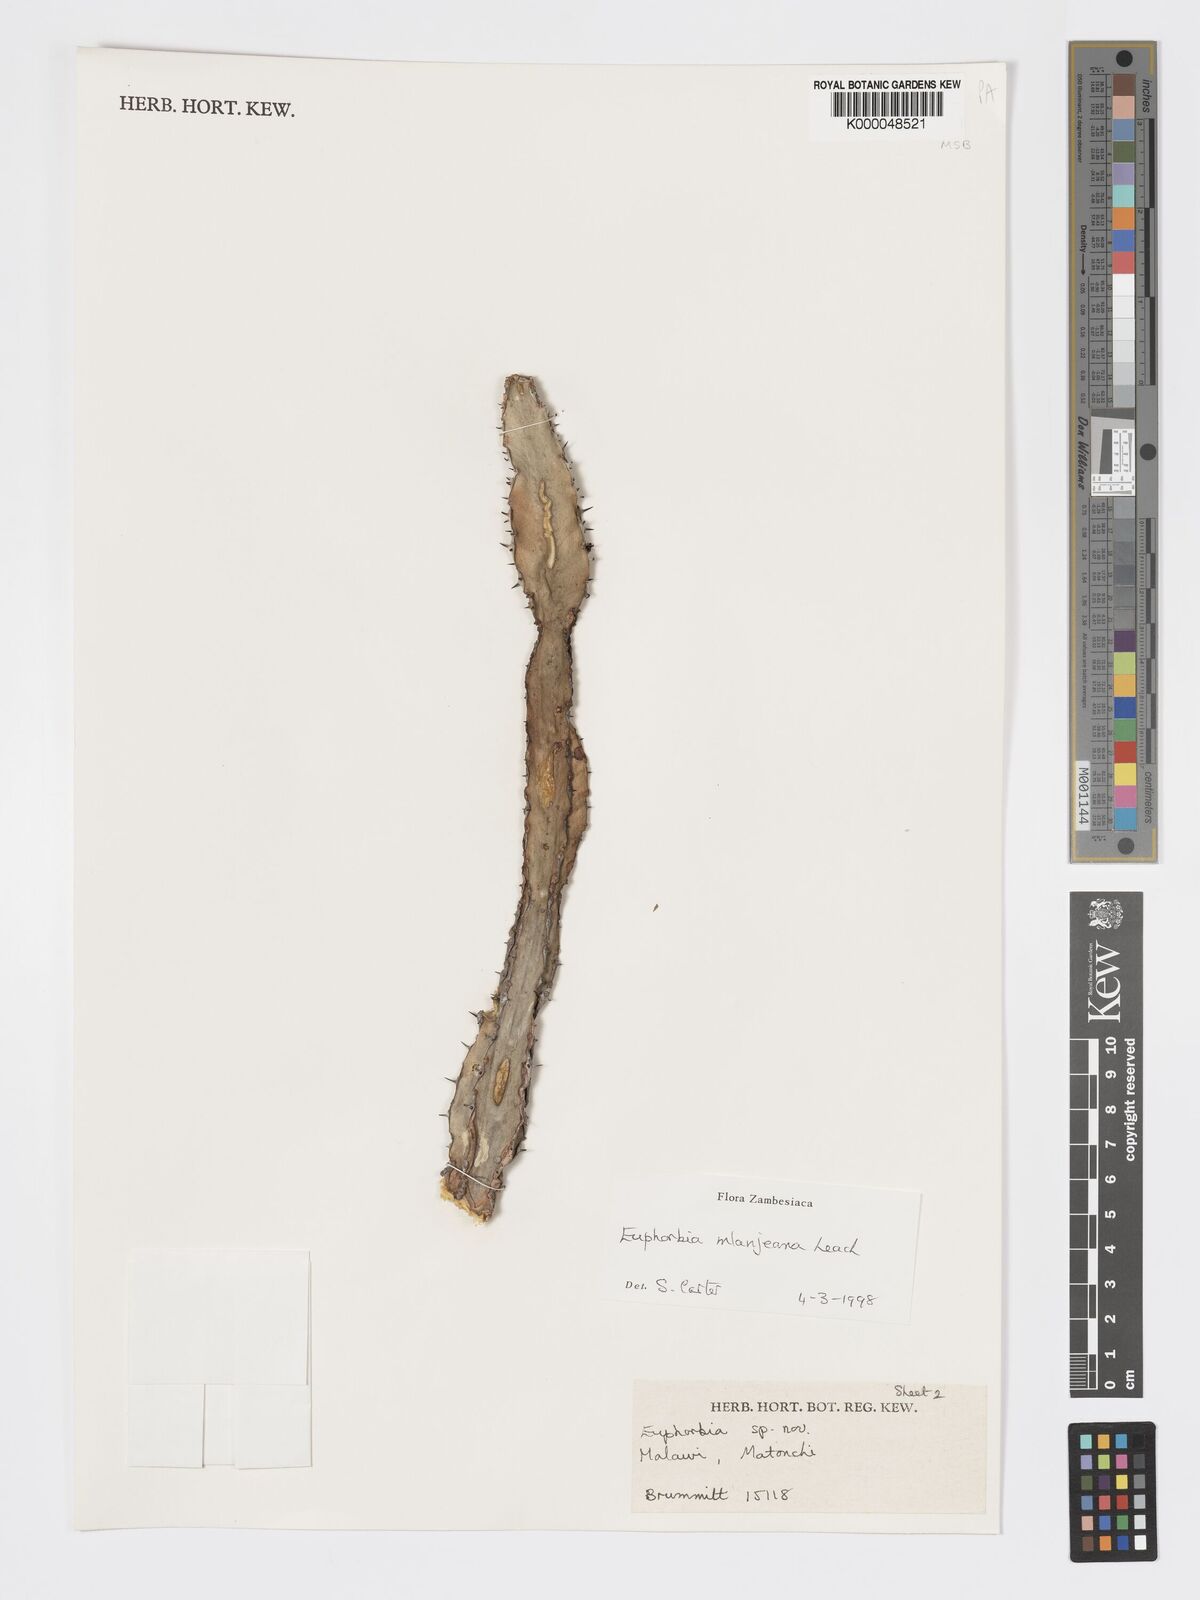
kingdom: Plantae
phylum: Tracheophyta
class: Magnoliopsida
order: Malpighiales
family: Euphorbiaceae
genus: Euphorbia
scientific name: Euphorbia mlanjeana
